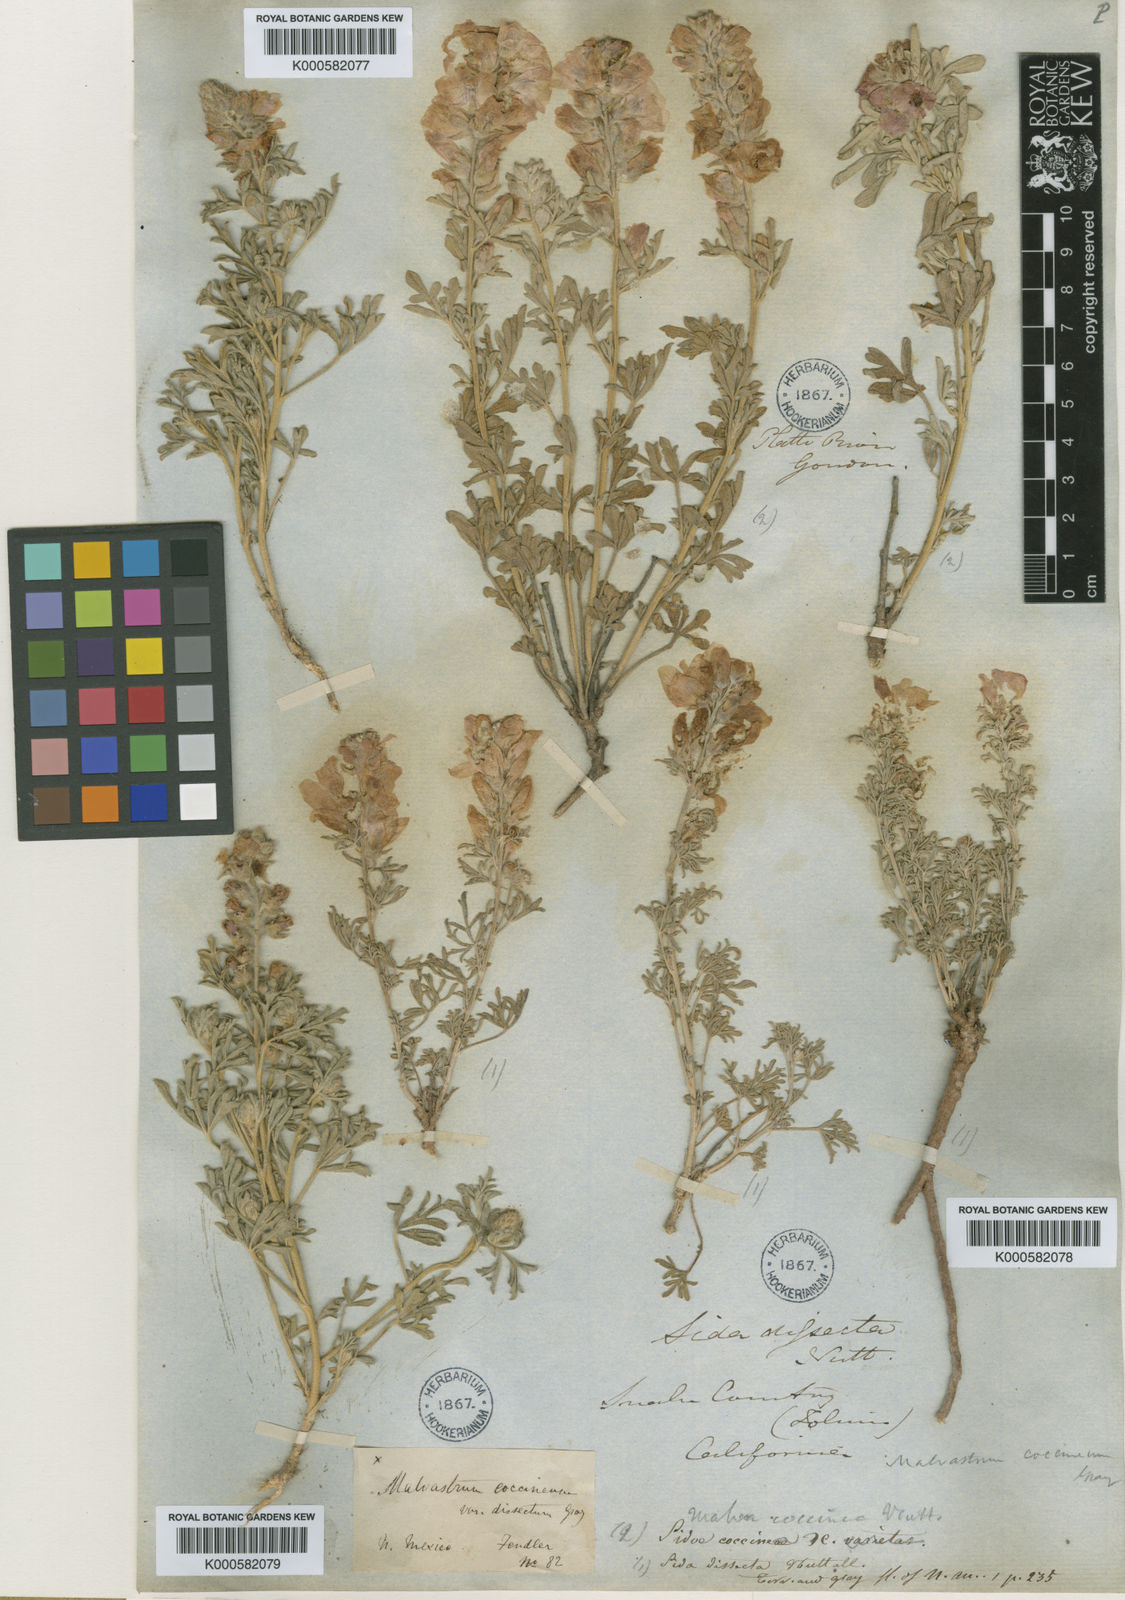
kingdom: Plantae
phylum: Tracheophyta
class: Magnoliopsida
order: Malvales
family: Malvaceae
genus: Sphaeralcea
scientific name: Sphaeralcea coccinea
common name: Moss-rose
